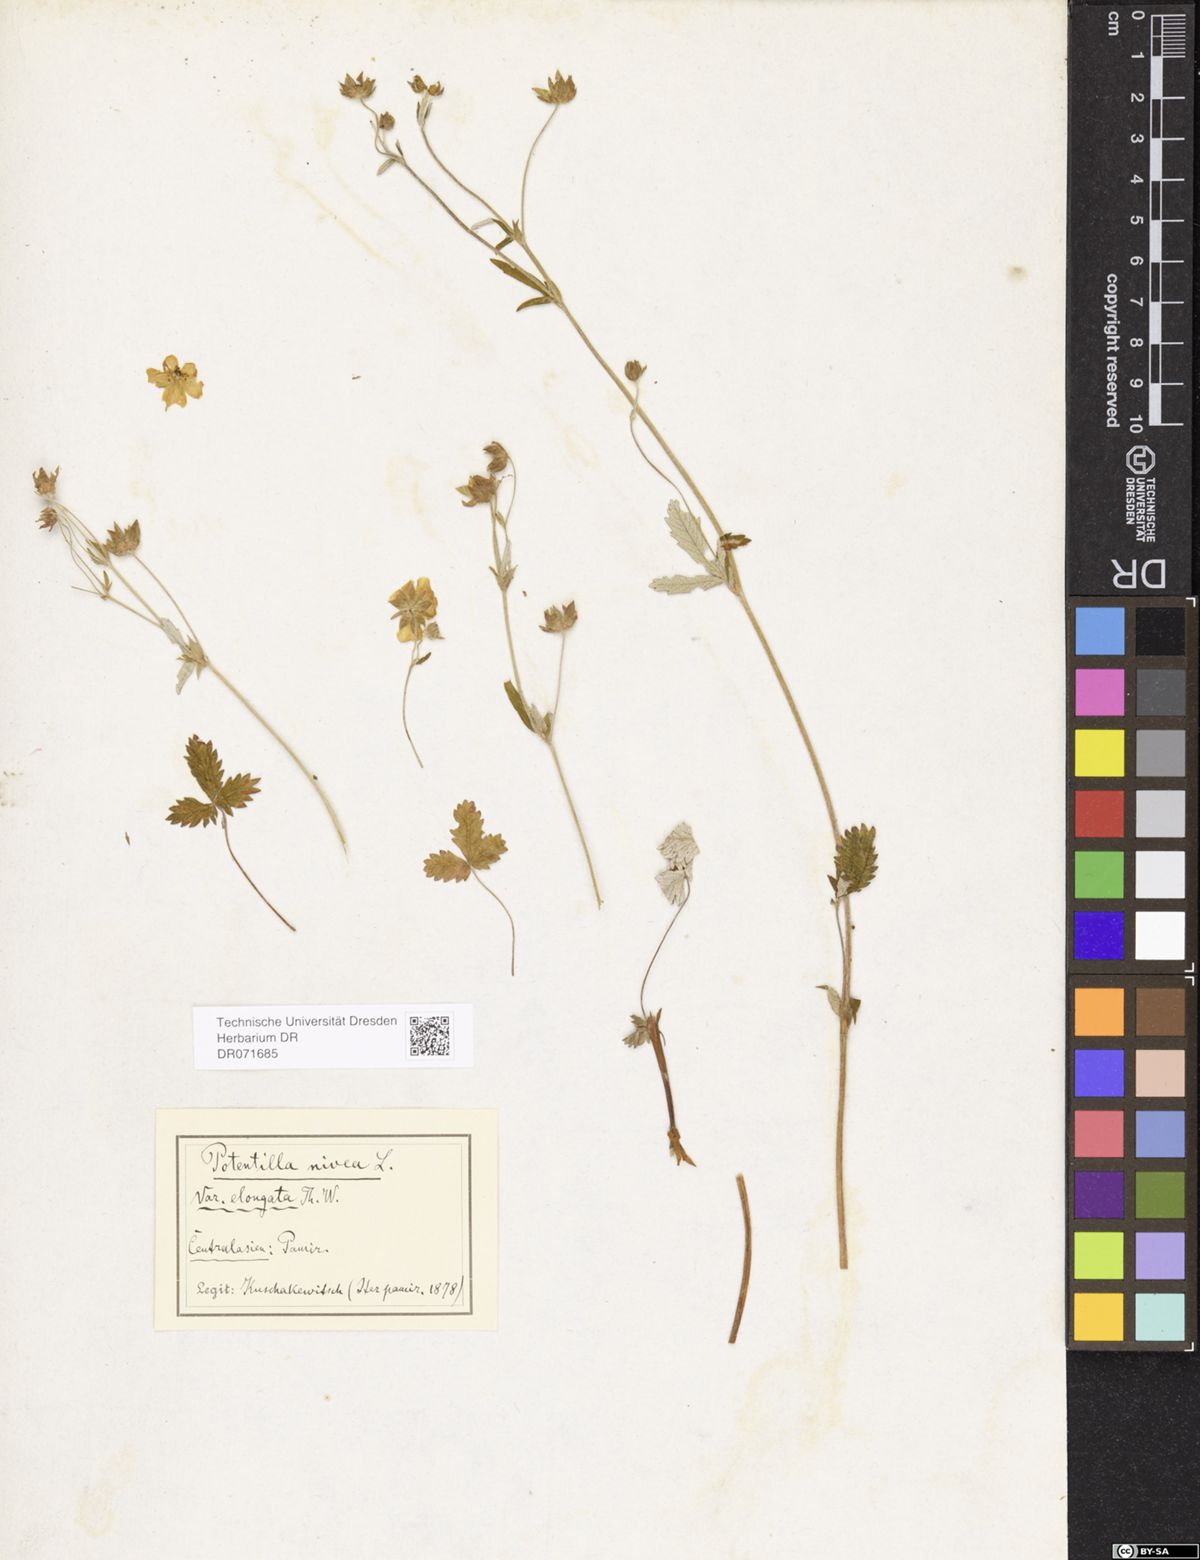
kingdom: Plantae
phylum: Tracheophyta
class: Magnoliopsida
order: Rosales
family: Rosaceae
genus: Potentilla
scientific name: Potentilla crebridens
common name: Congested cinquefoil
